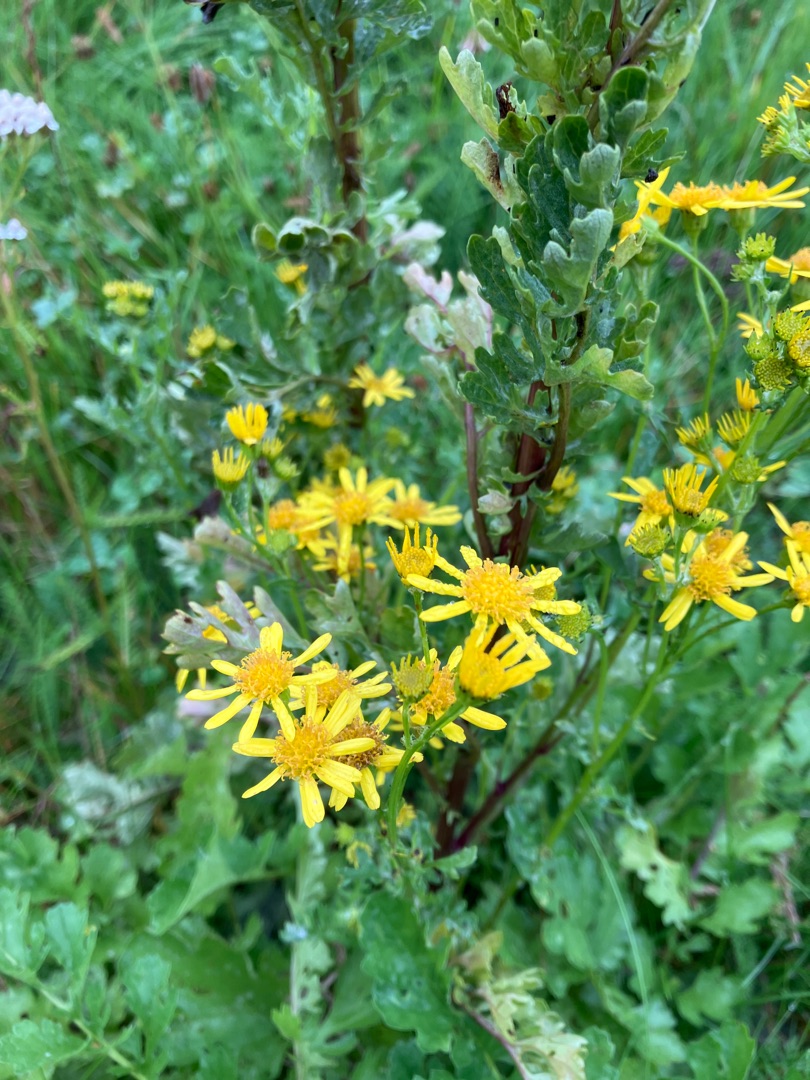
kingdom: Plantae
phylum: Tracheophyta
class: Magnoliopsida
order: Asterales
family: Asteraceae
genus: Jacobaea
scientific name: Jacobaea vulgaris
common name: Eng-brandbæger
